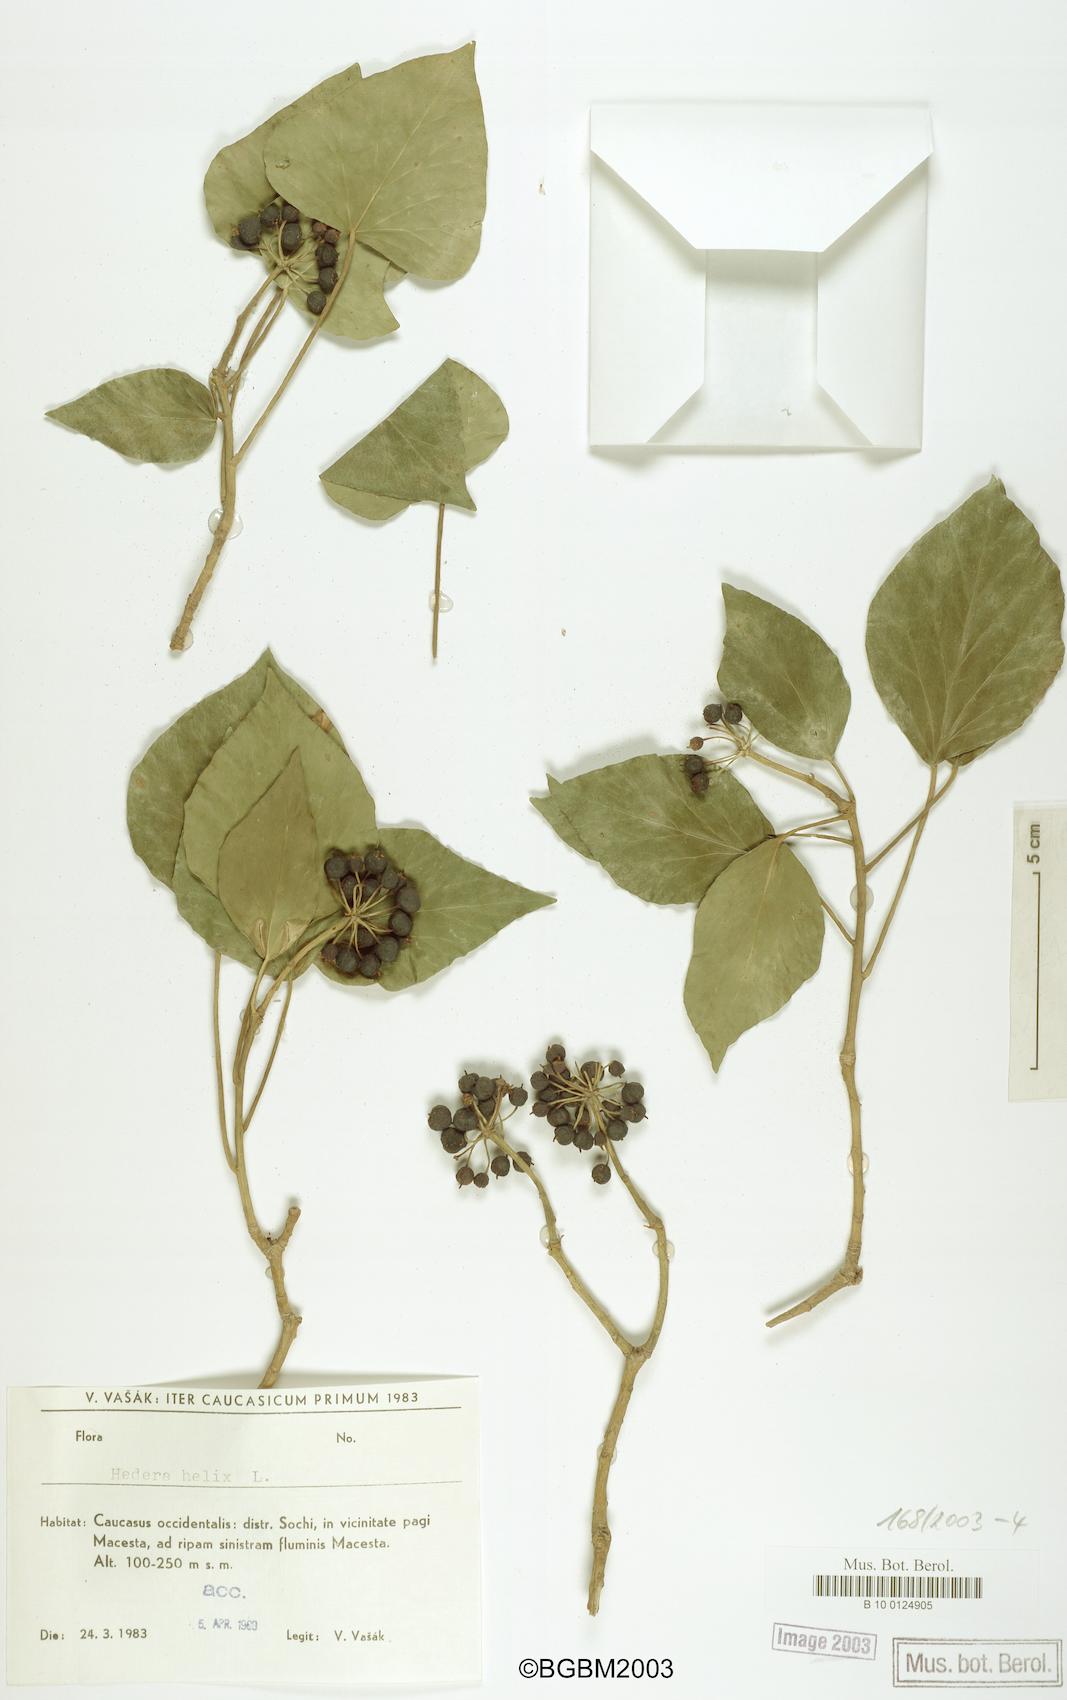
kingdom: Plantae
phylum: Tracheophyta
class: Magnoliopsida
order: Apiales
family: Araliaceae
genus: Hedera
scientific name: Hedera helix
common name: Ivy
